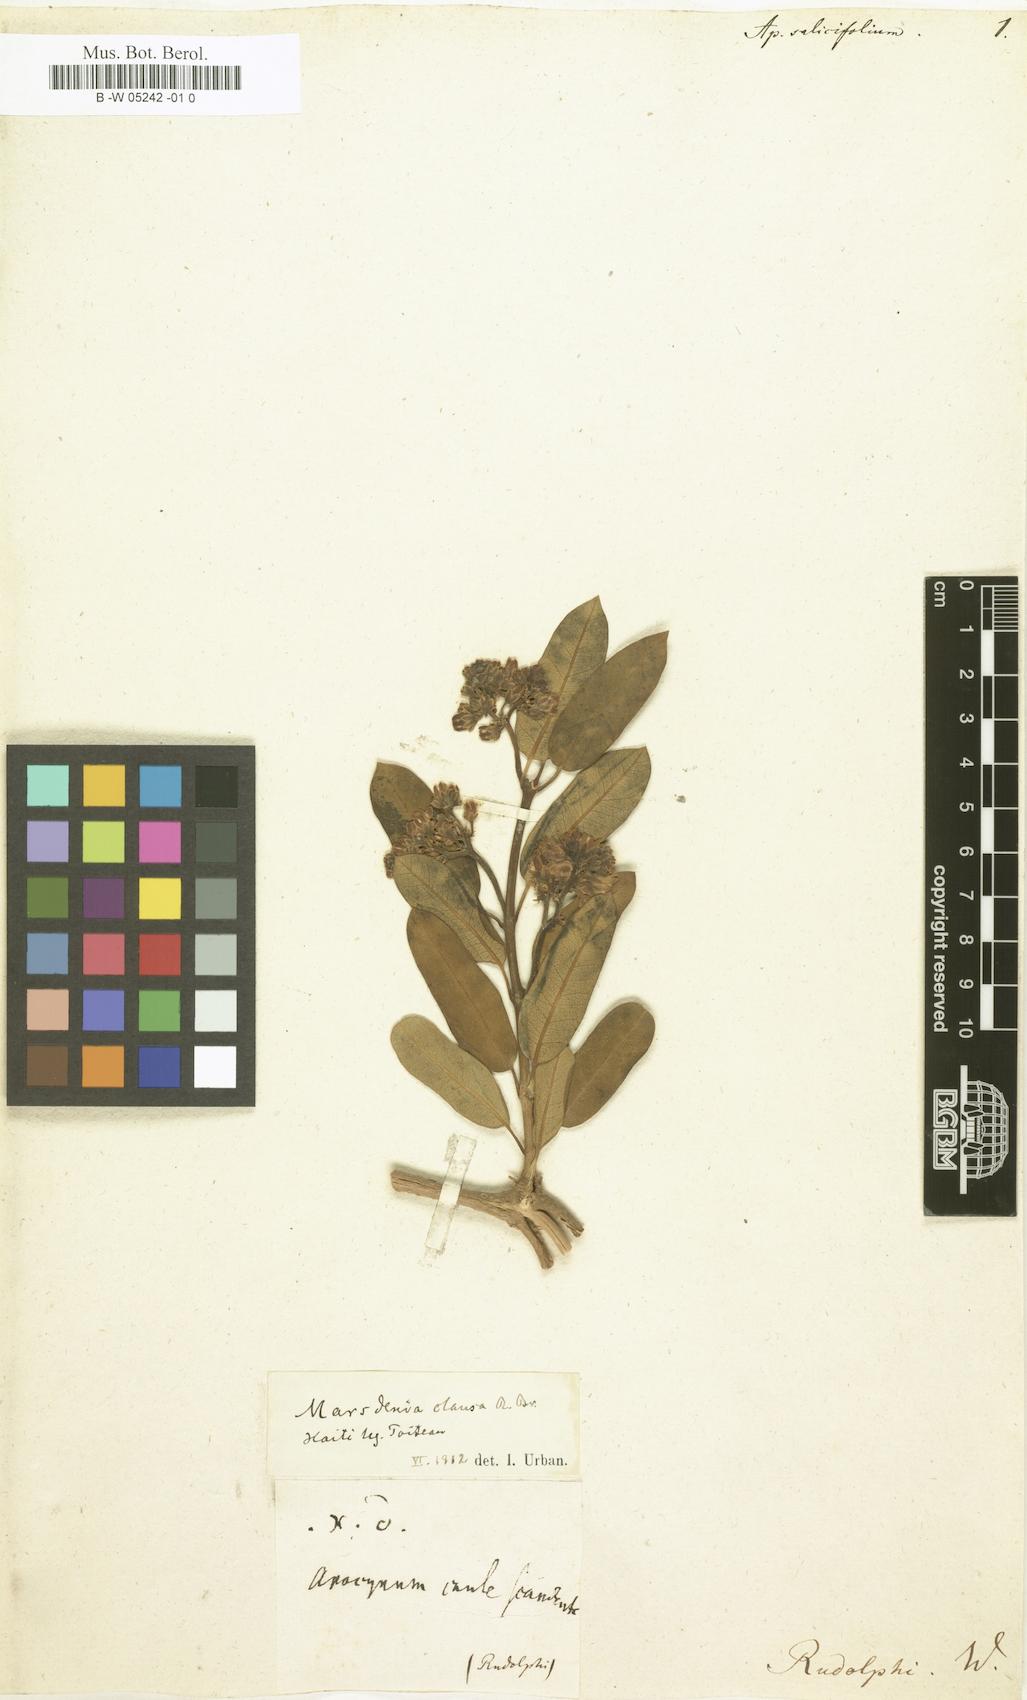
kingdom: Plantae
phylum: Tracheophyta
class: Magnoliopsida
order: Gentianales
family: Apocynaceae
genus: Gomphocarpus
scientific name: Gomphocarpus fruticosus
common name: Milkweed
